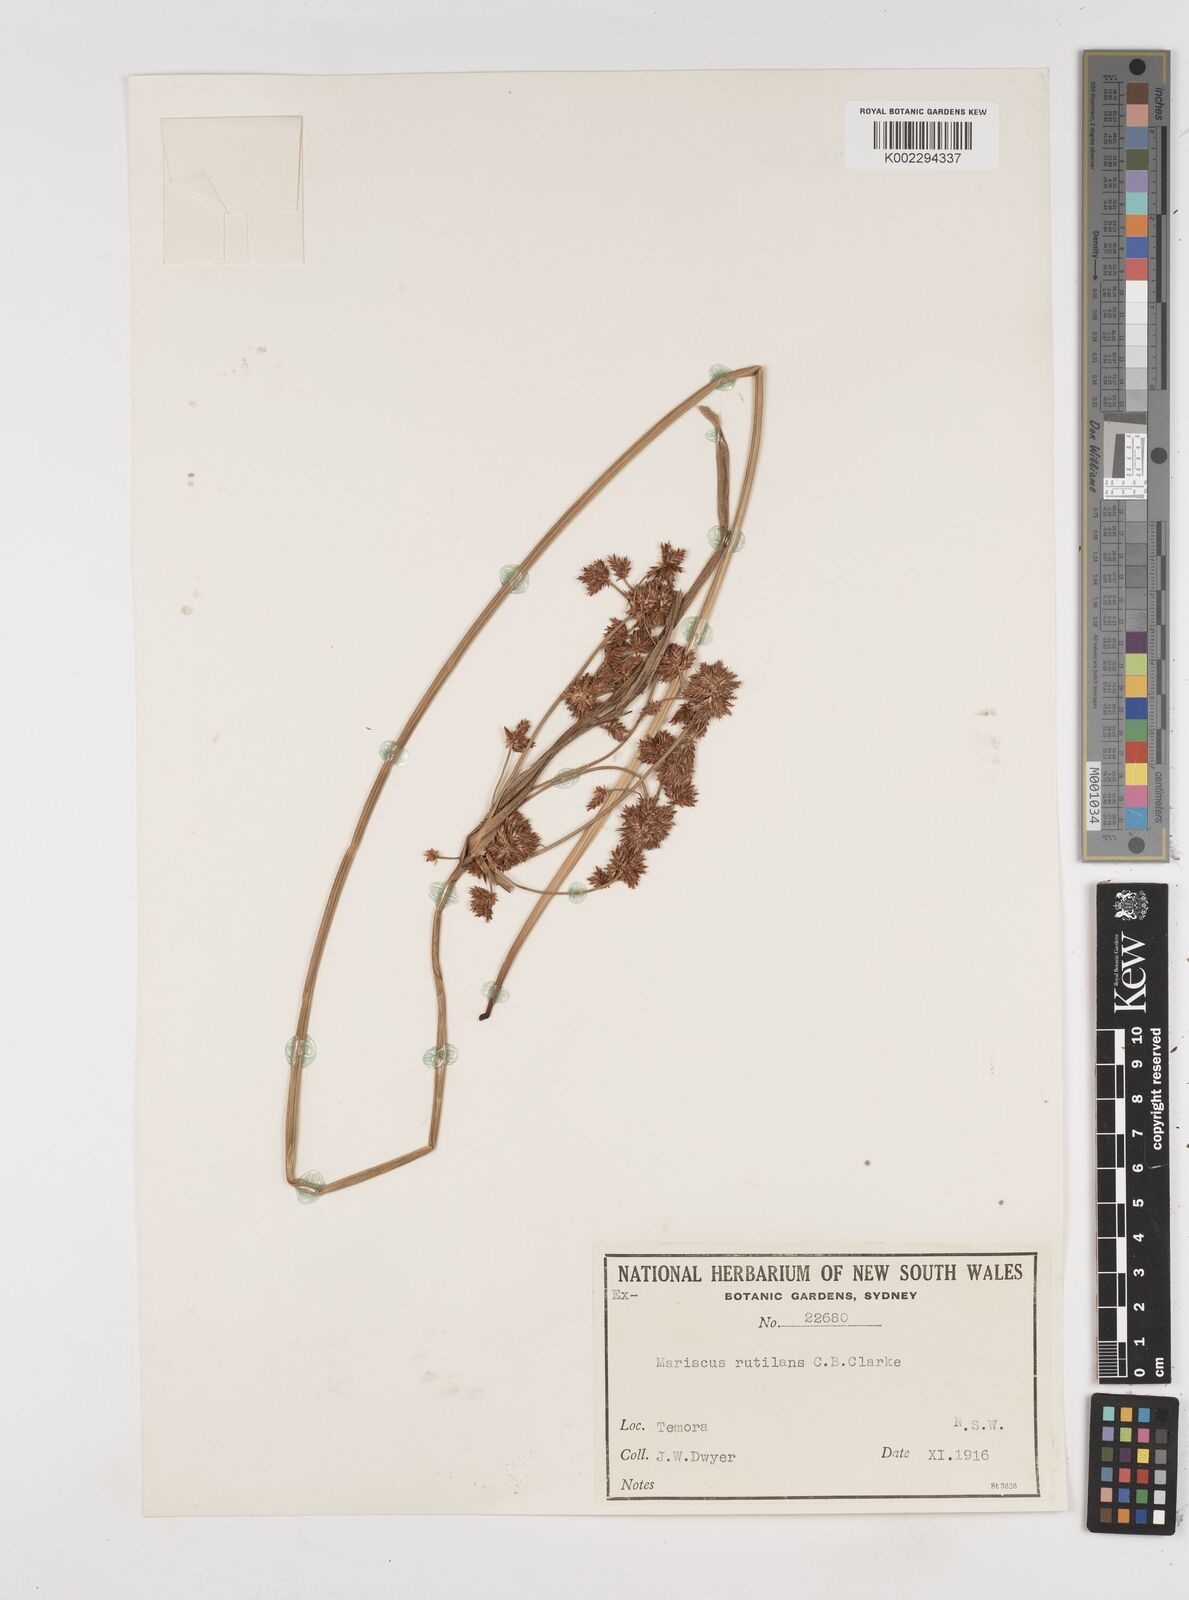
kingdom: Plantae
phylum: Tracheophyta
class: Liliopsida
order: Poales
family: Cyperaceae
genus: Cyperus
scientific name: Cyperus lhotskyanus
